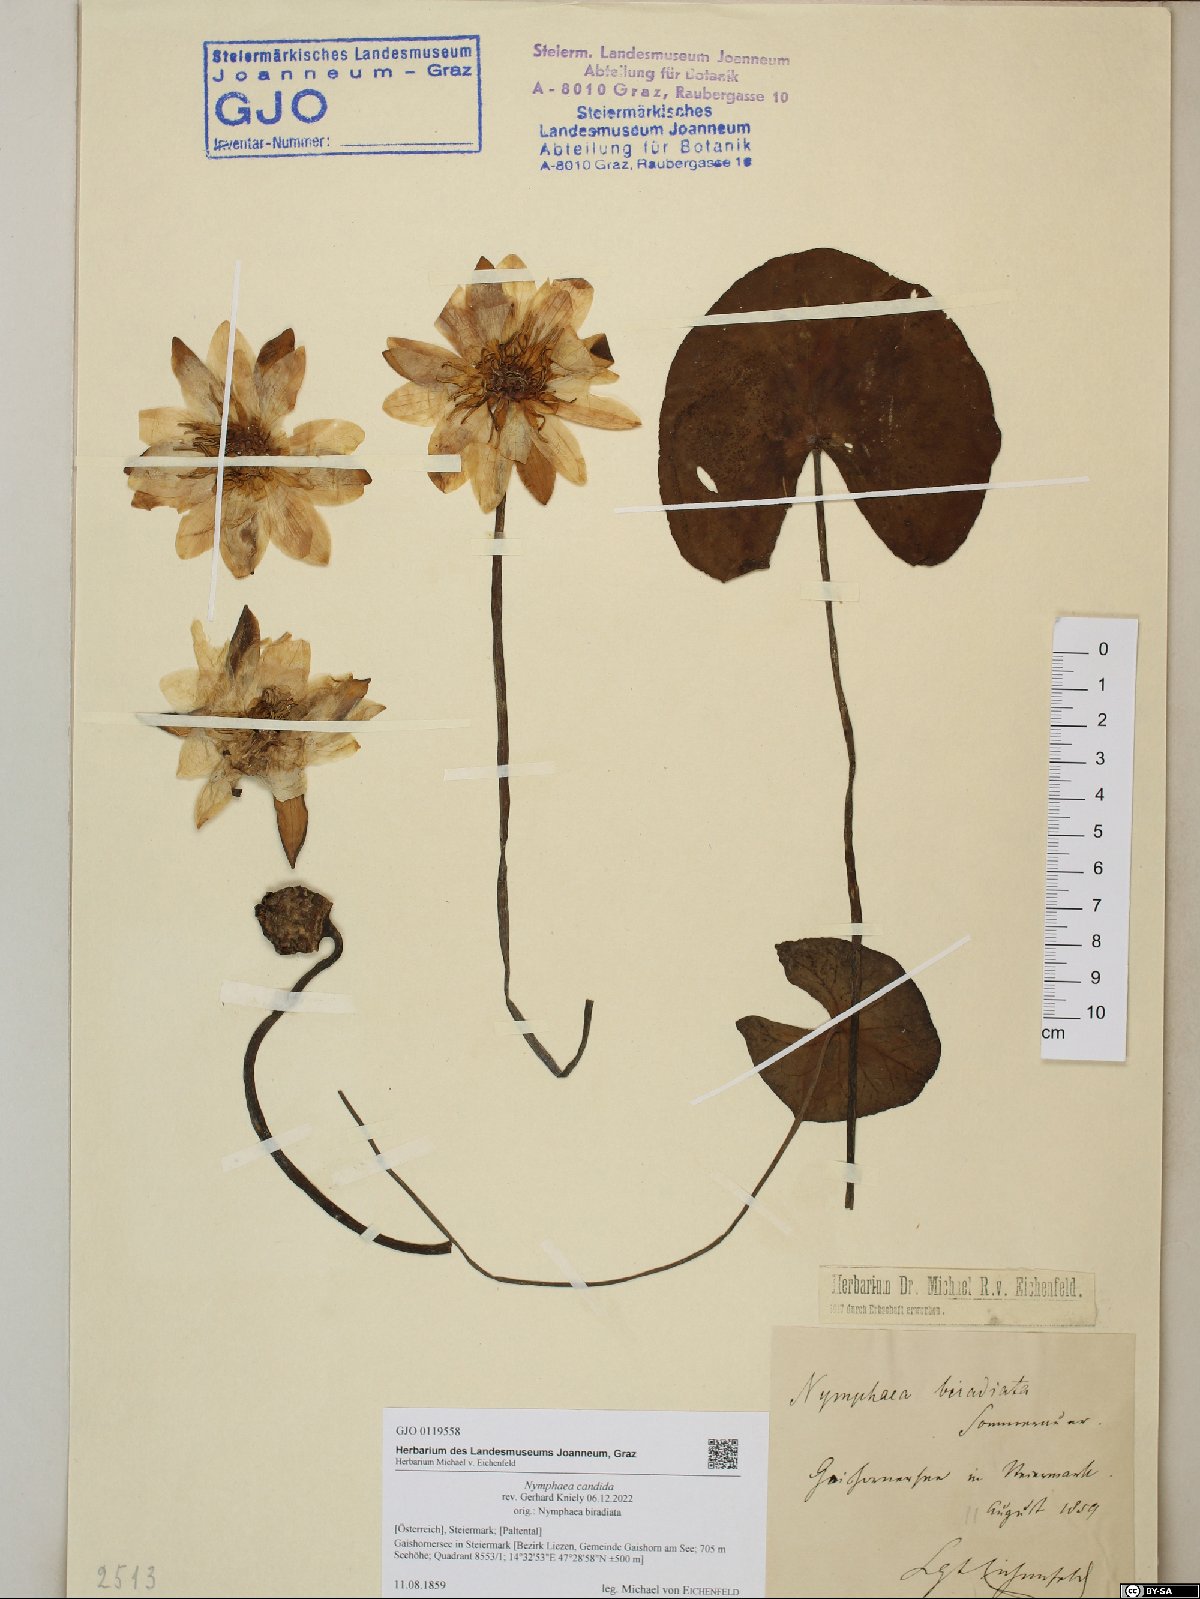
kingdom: Plantae
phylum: Tracheophyta
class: Magnoliopsida
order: Nymphaeales
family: Nymphaeaceae
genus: Nymphaea
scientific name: Nymphaea candida
